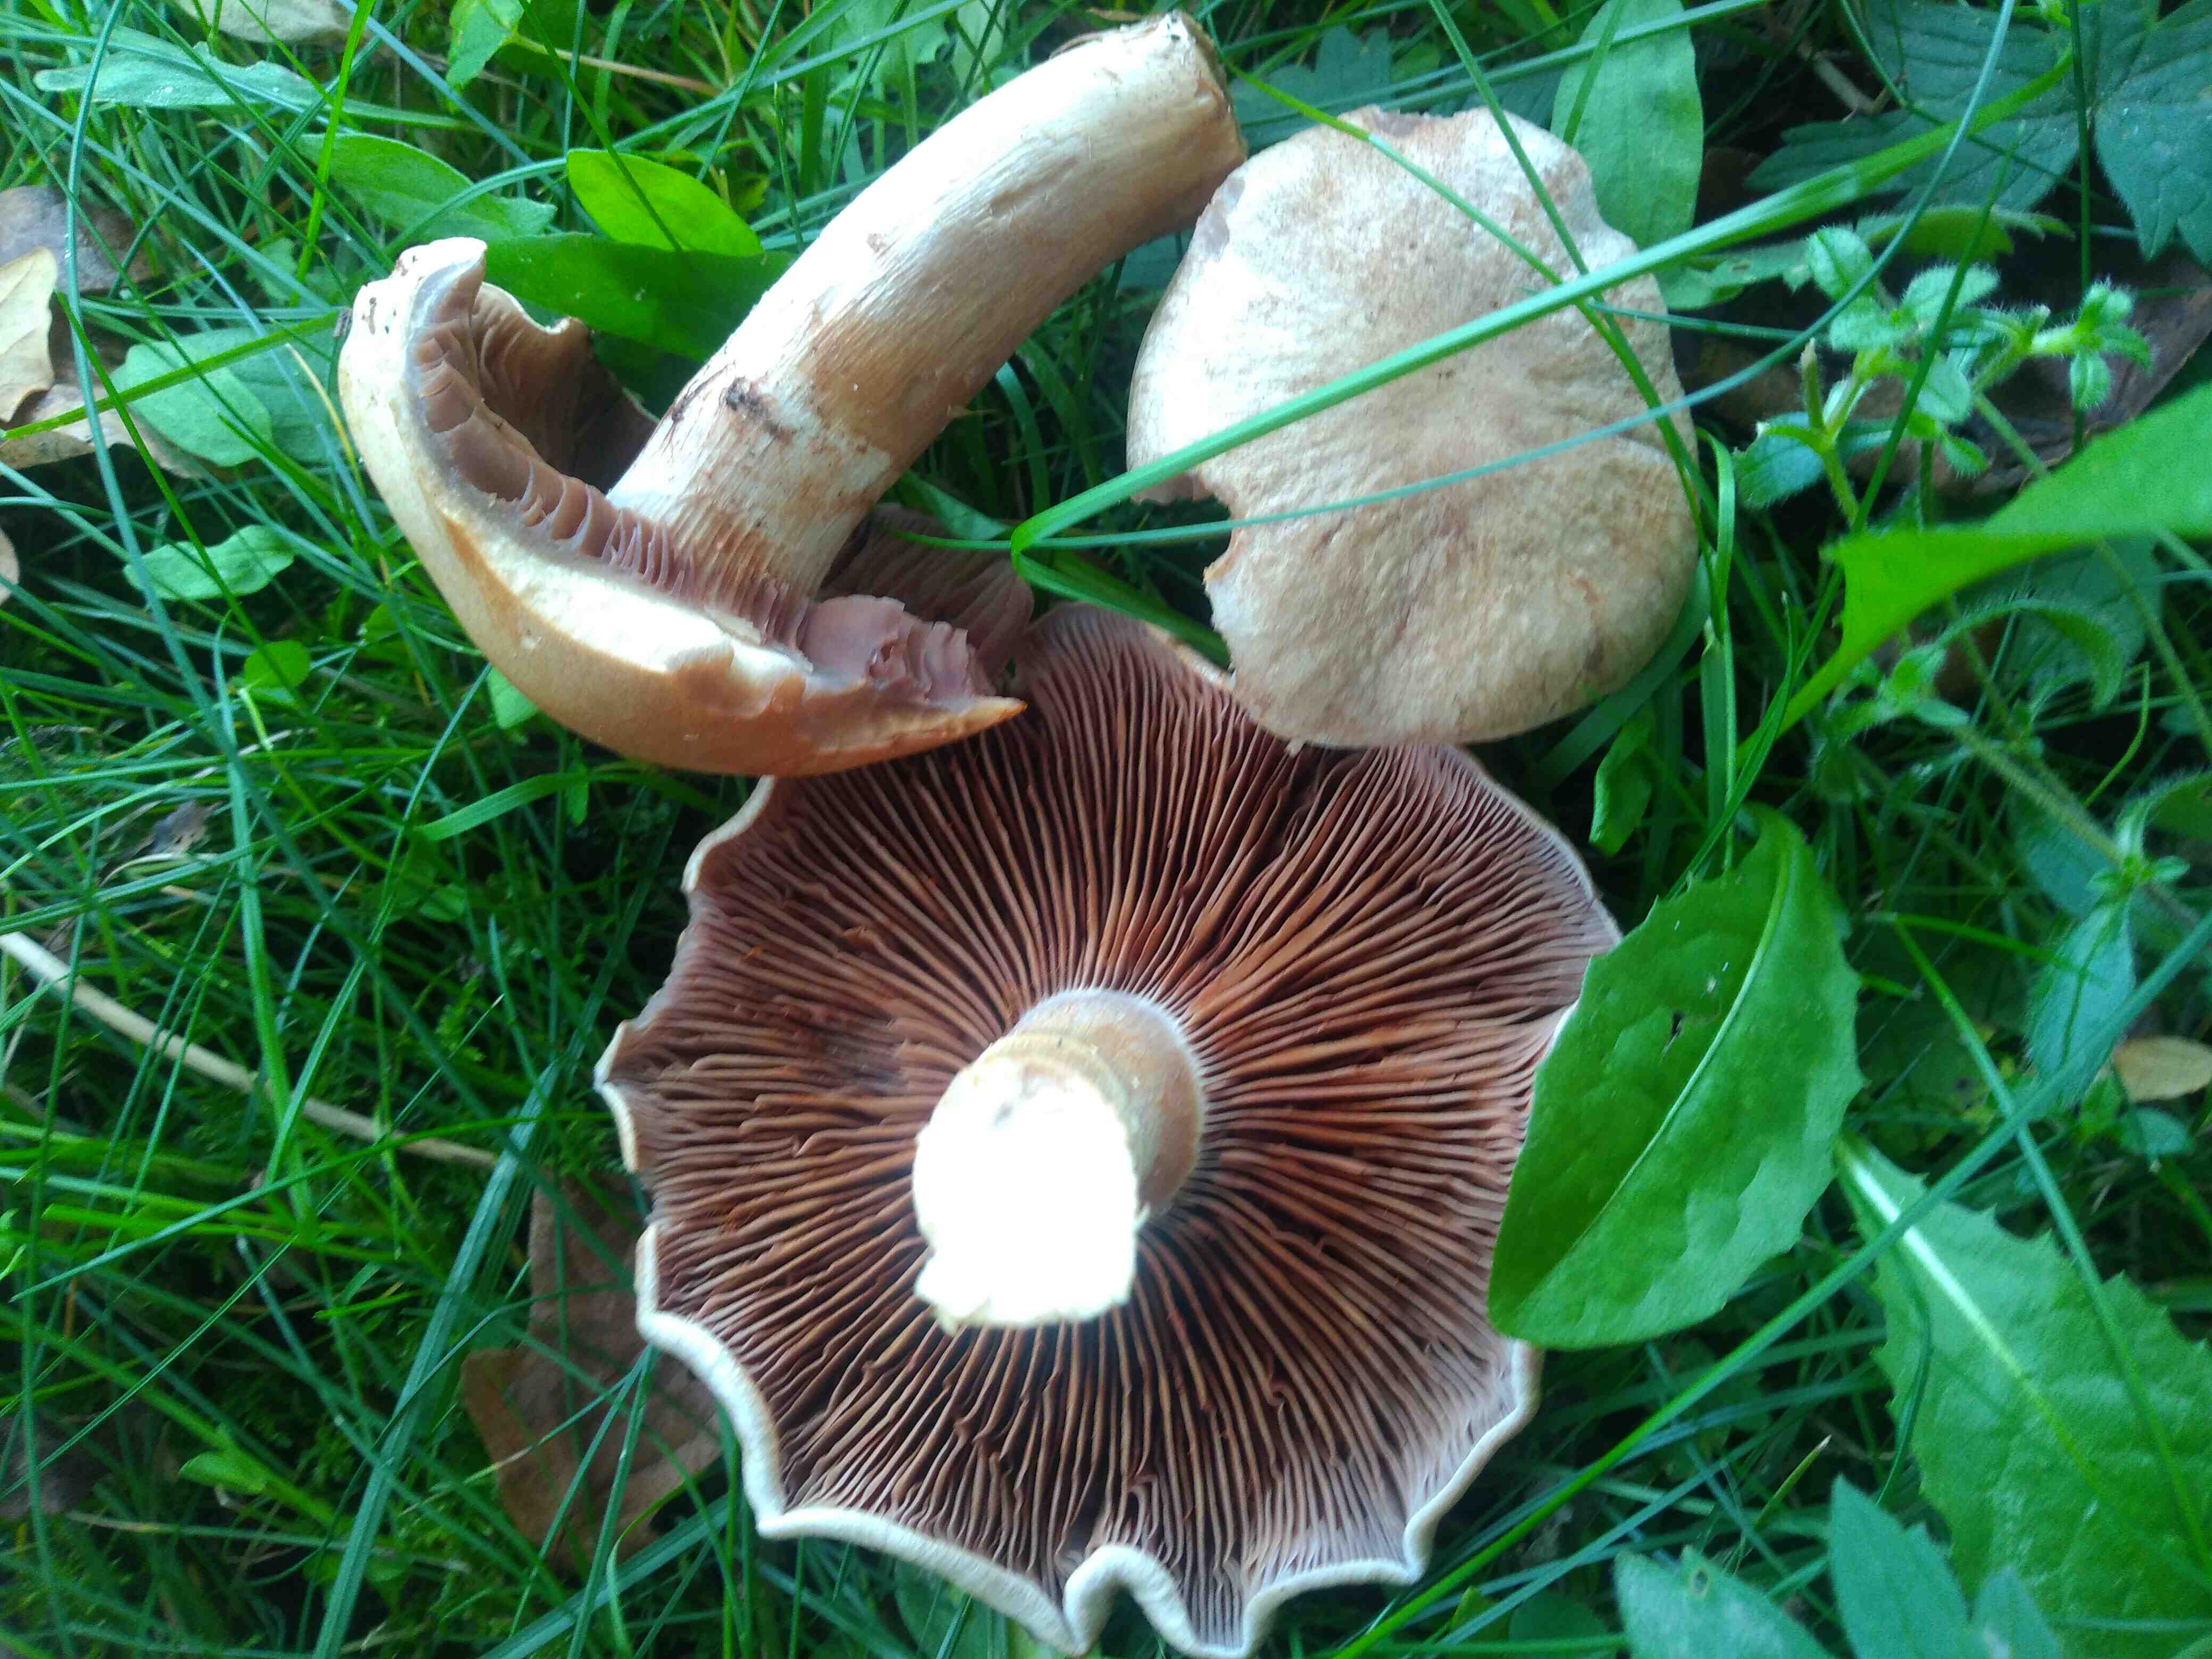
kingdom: Fungi
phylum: Basidiomycota
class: Agaricomycetes
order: Agaricales
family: Cortinariaceae
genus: Cortinarius
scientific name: Cortinarius
